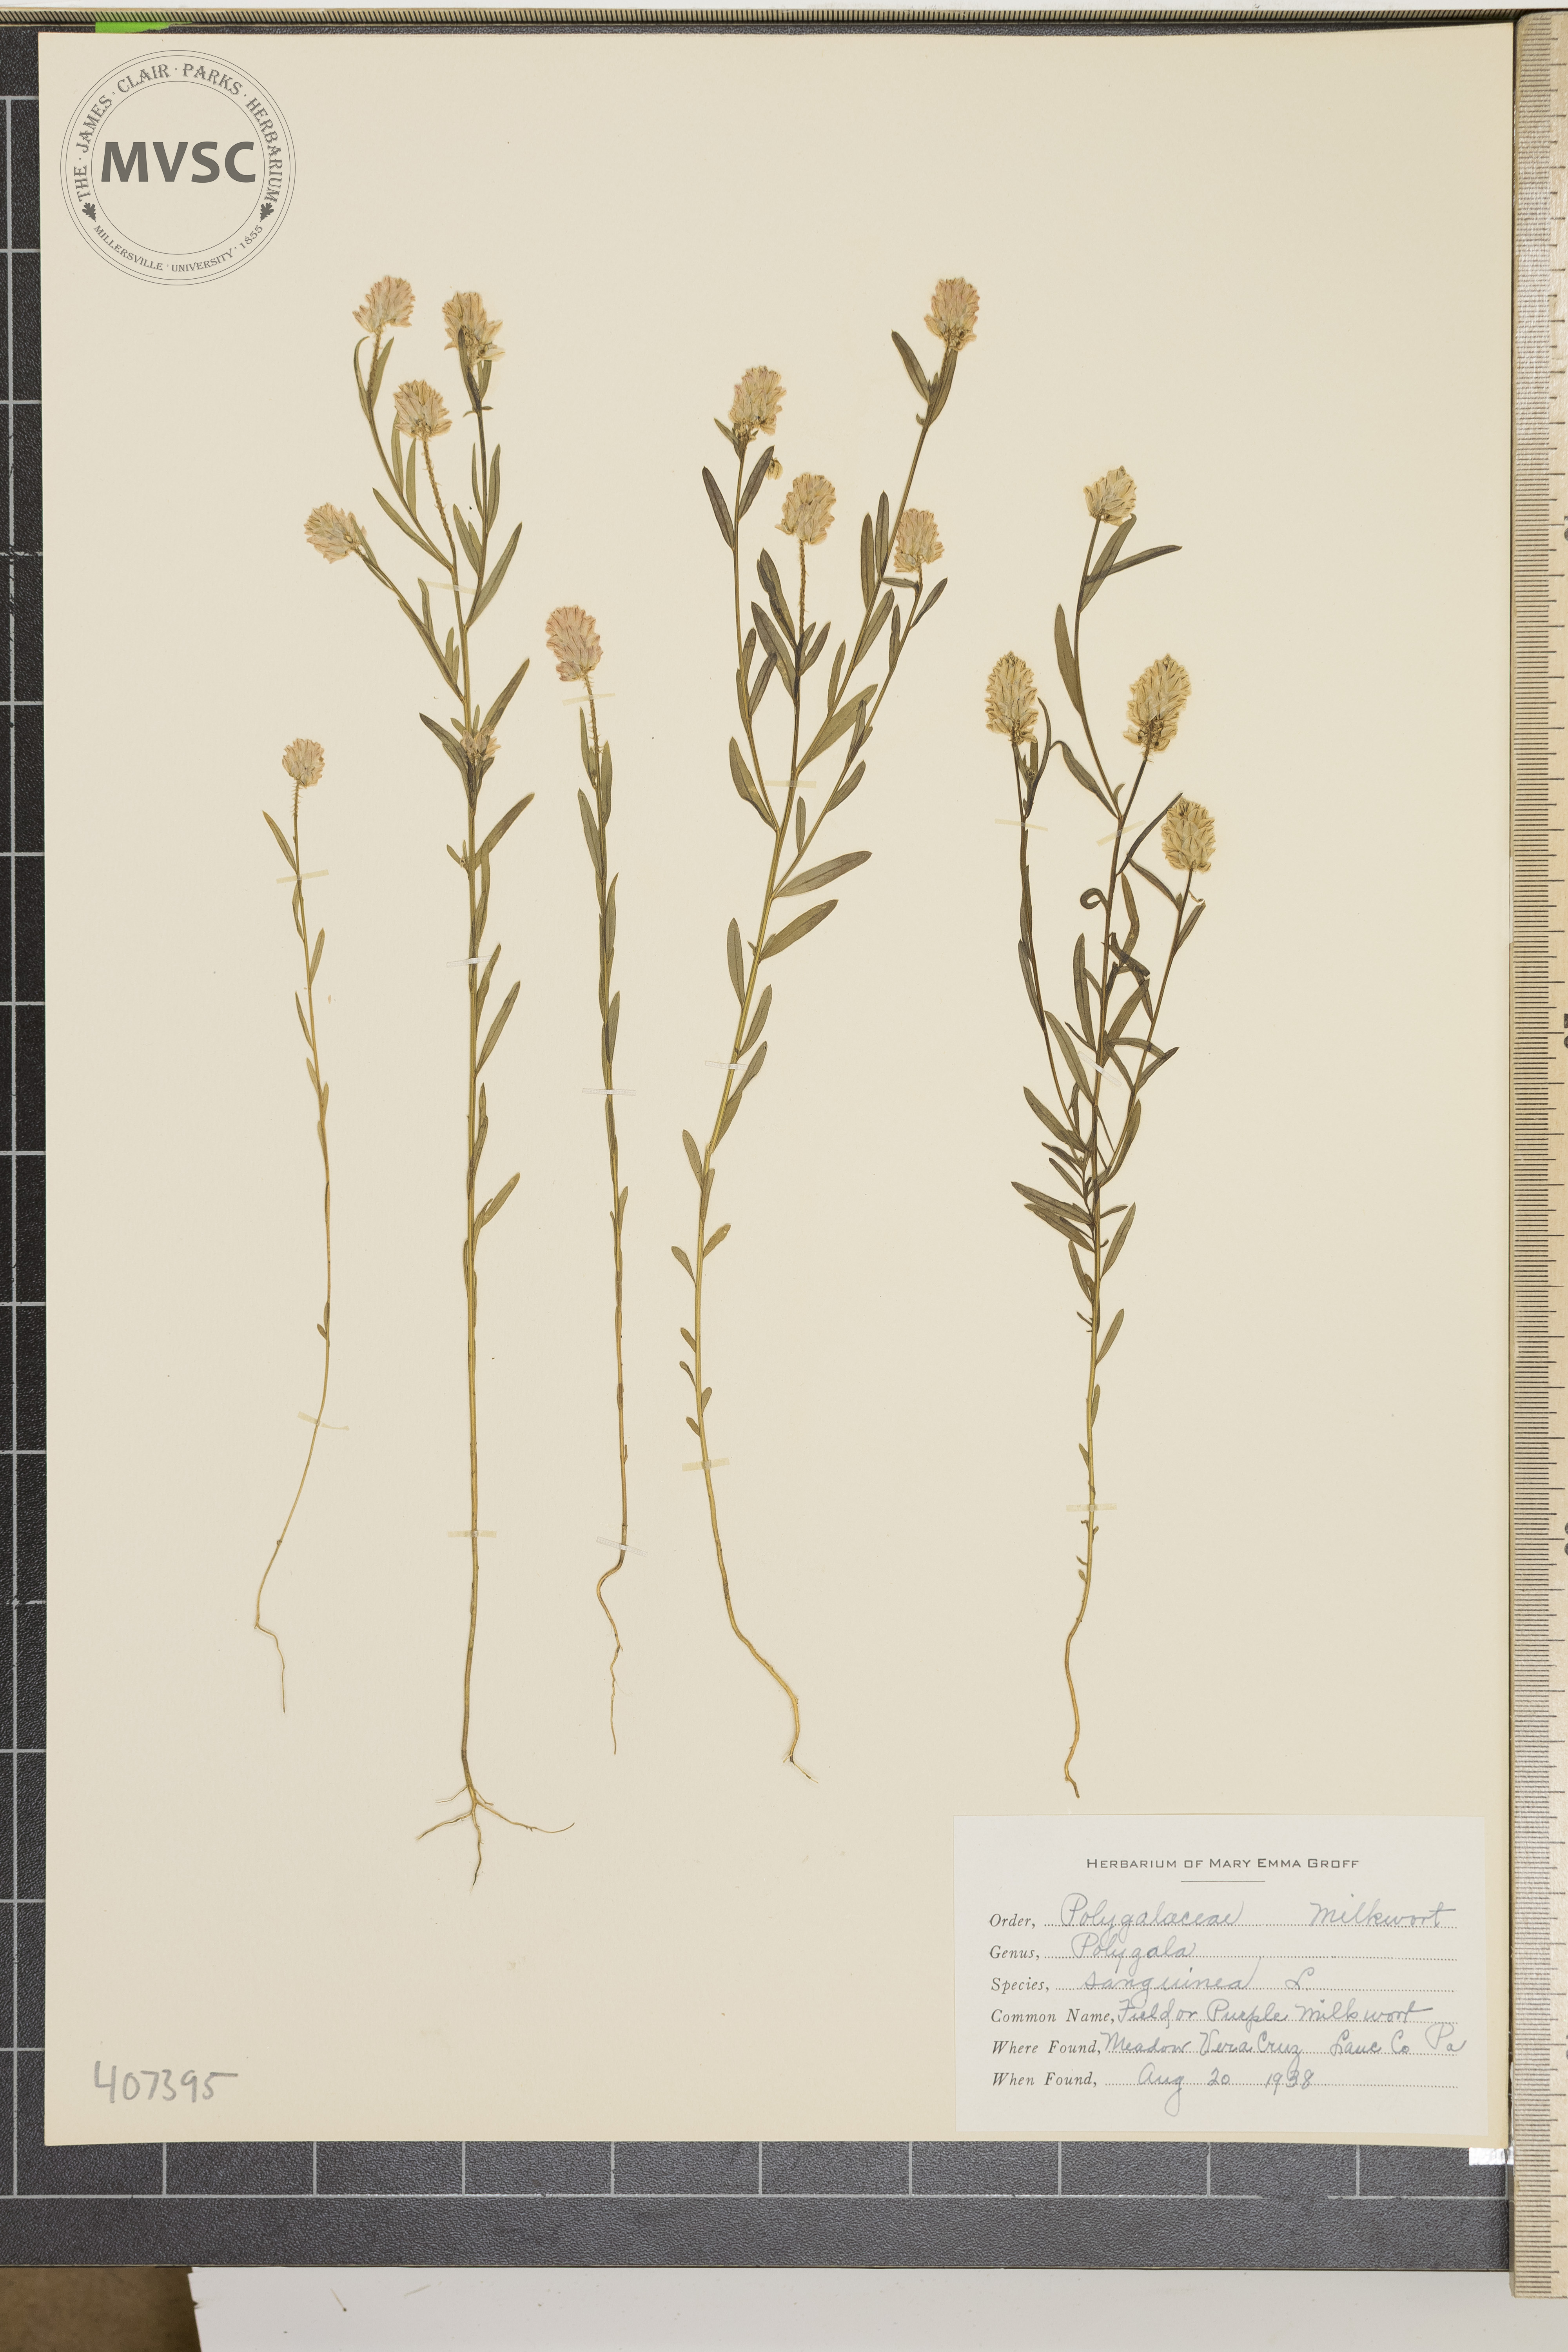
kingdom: Plantae
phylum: Tracheophyta
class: Magnoliopsida
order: Fabales
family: Polygalaceae
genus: Polygala
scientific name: Polygala sanguinea
